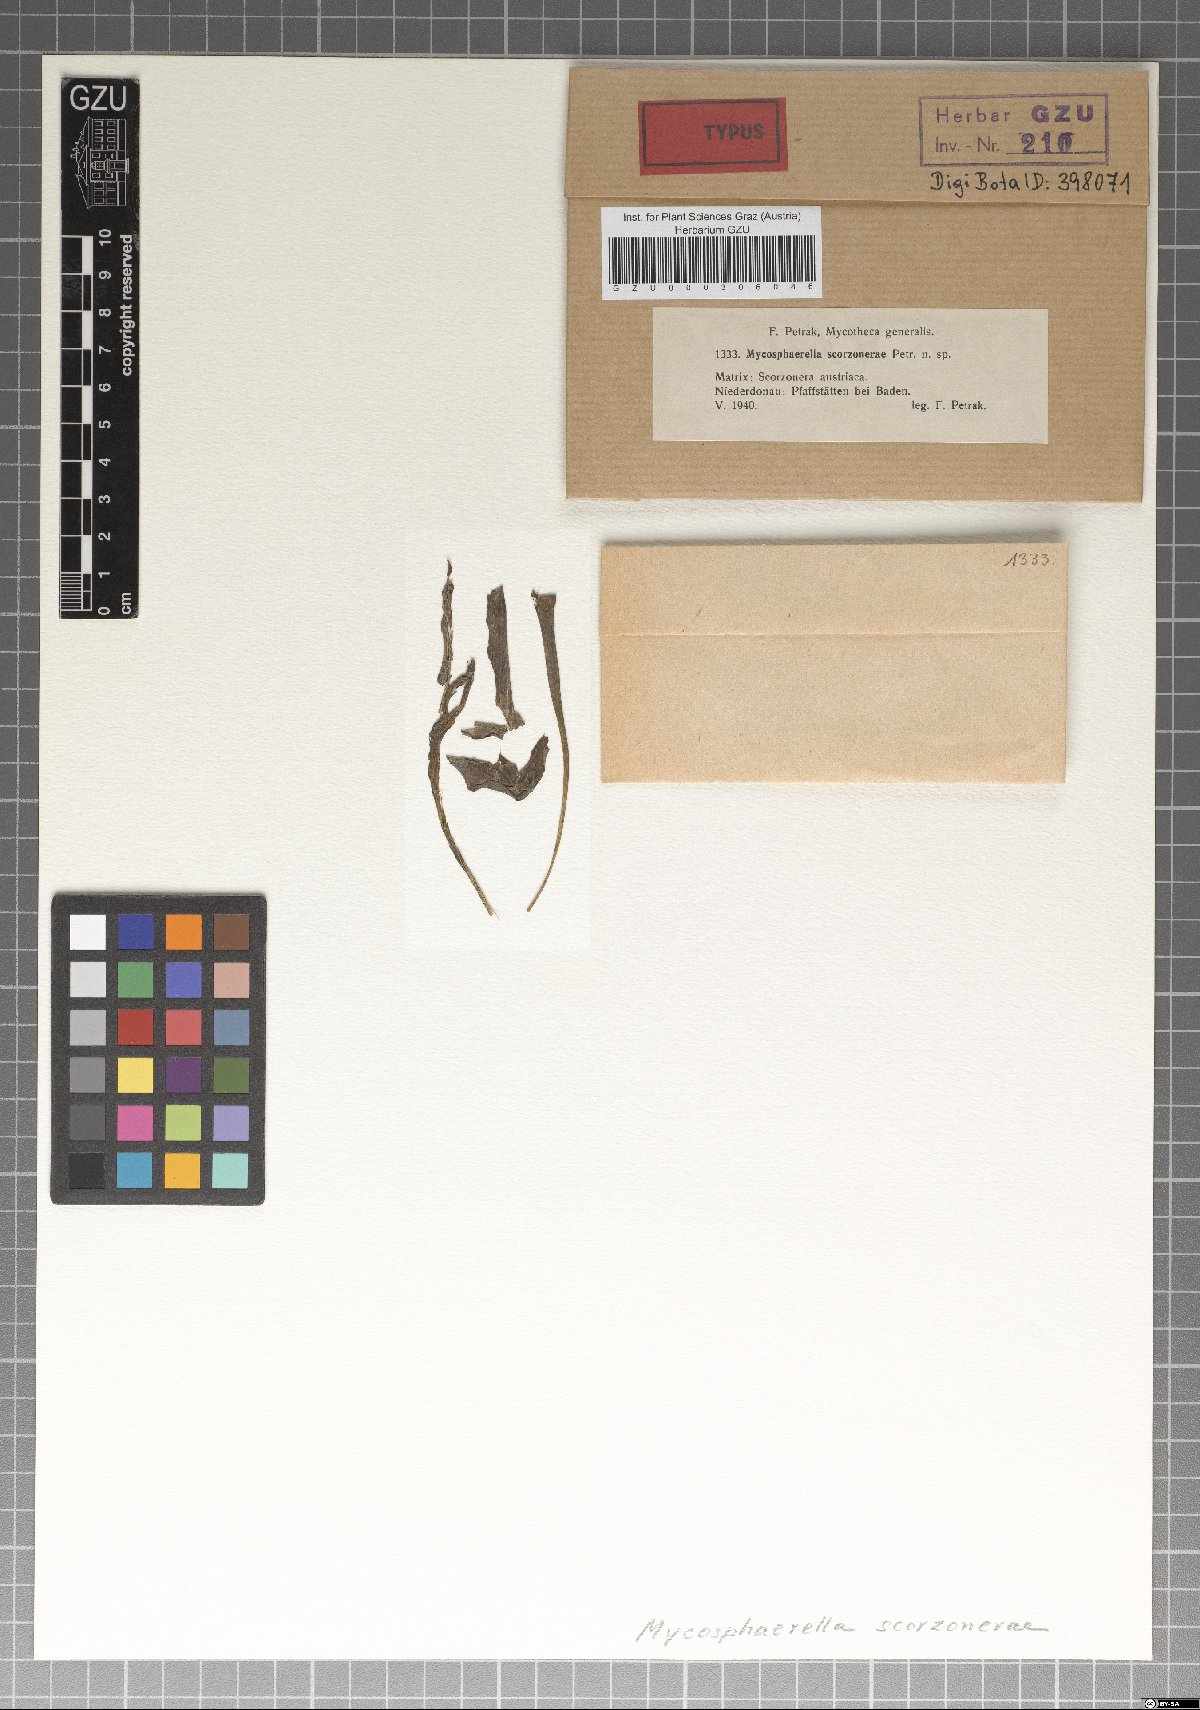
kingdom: Fungi
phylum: Ascomycota
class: Dothideomycetes
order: Mycosphaerellales
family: Mycosphaerellaceae
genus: Mycosphaerella
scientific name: Mycosphaerella scorzonerae
